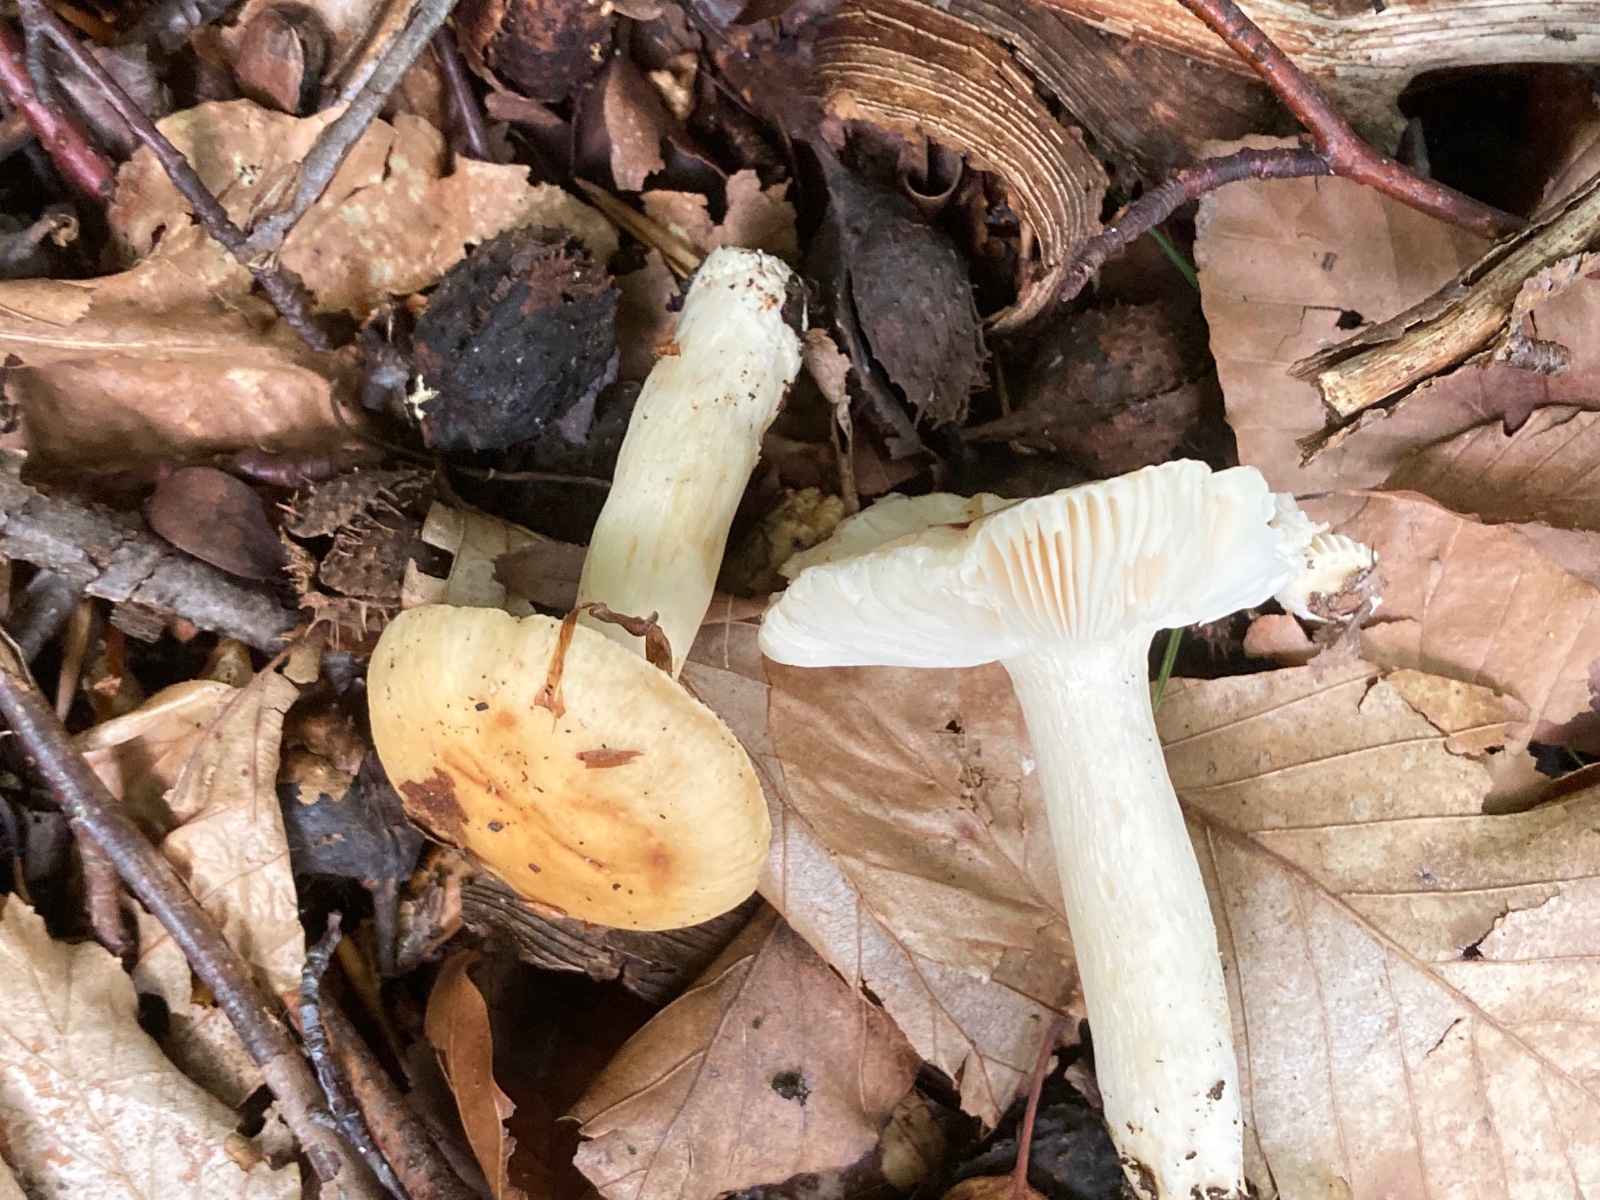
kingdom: Fungi
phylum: Basidiomycota
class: Agaricomycetes
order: Russulales
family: Russulaceae
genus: Russula
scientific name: Russula fellea
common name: galde-skørhat
